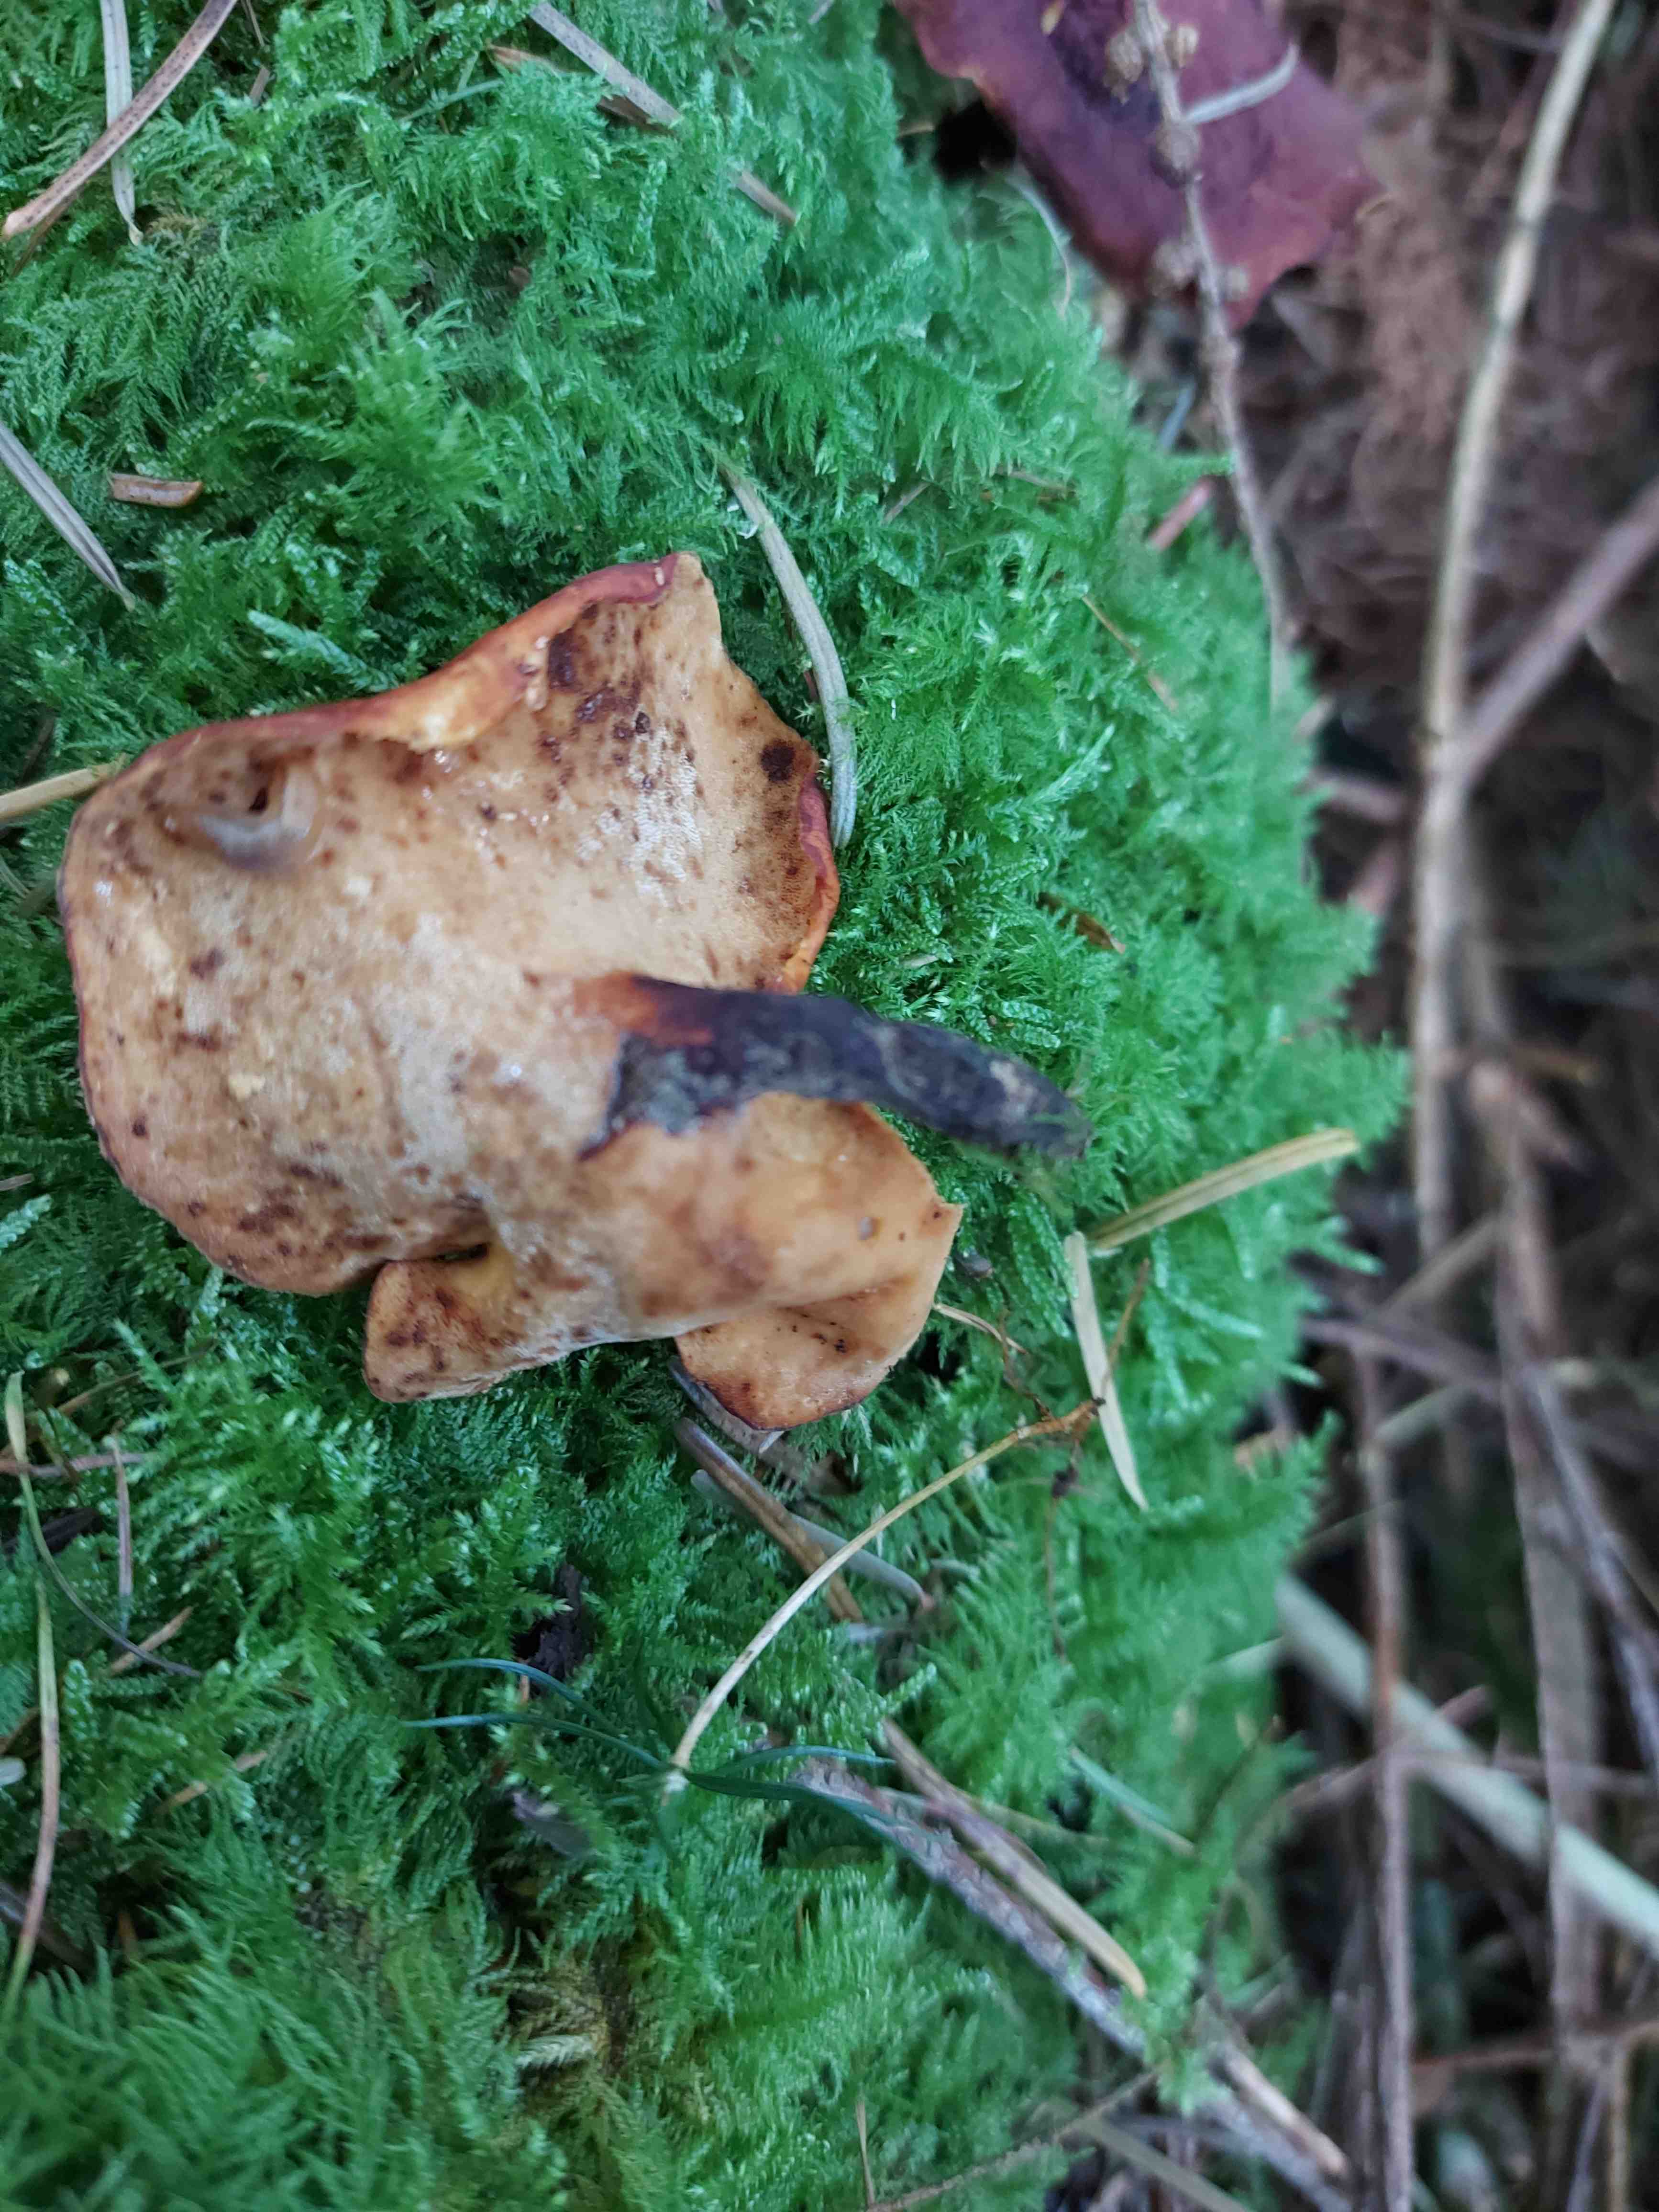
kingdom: Fungi
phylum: Basidiomycota
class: Agaricomycetes
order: Polyporales
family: Polyporaceae
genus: Picipes
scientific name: Picipes badius
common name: kastaniebrun stilkporesvamp
